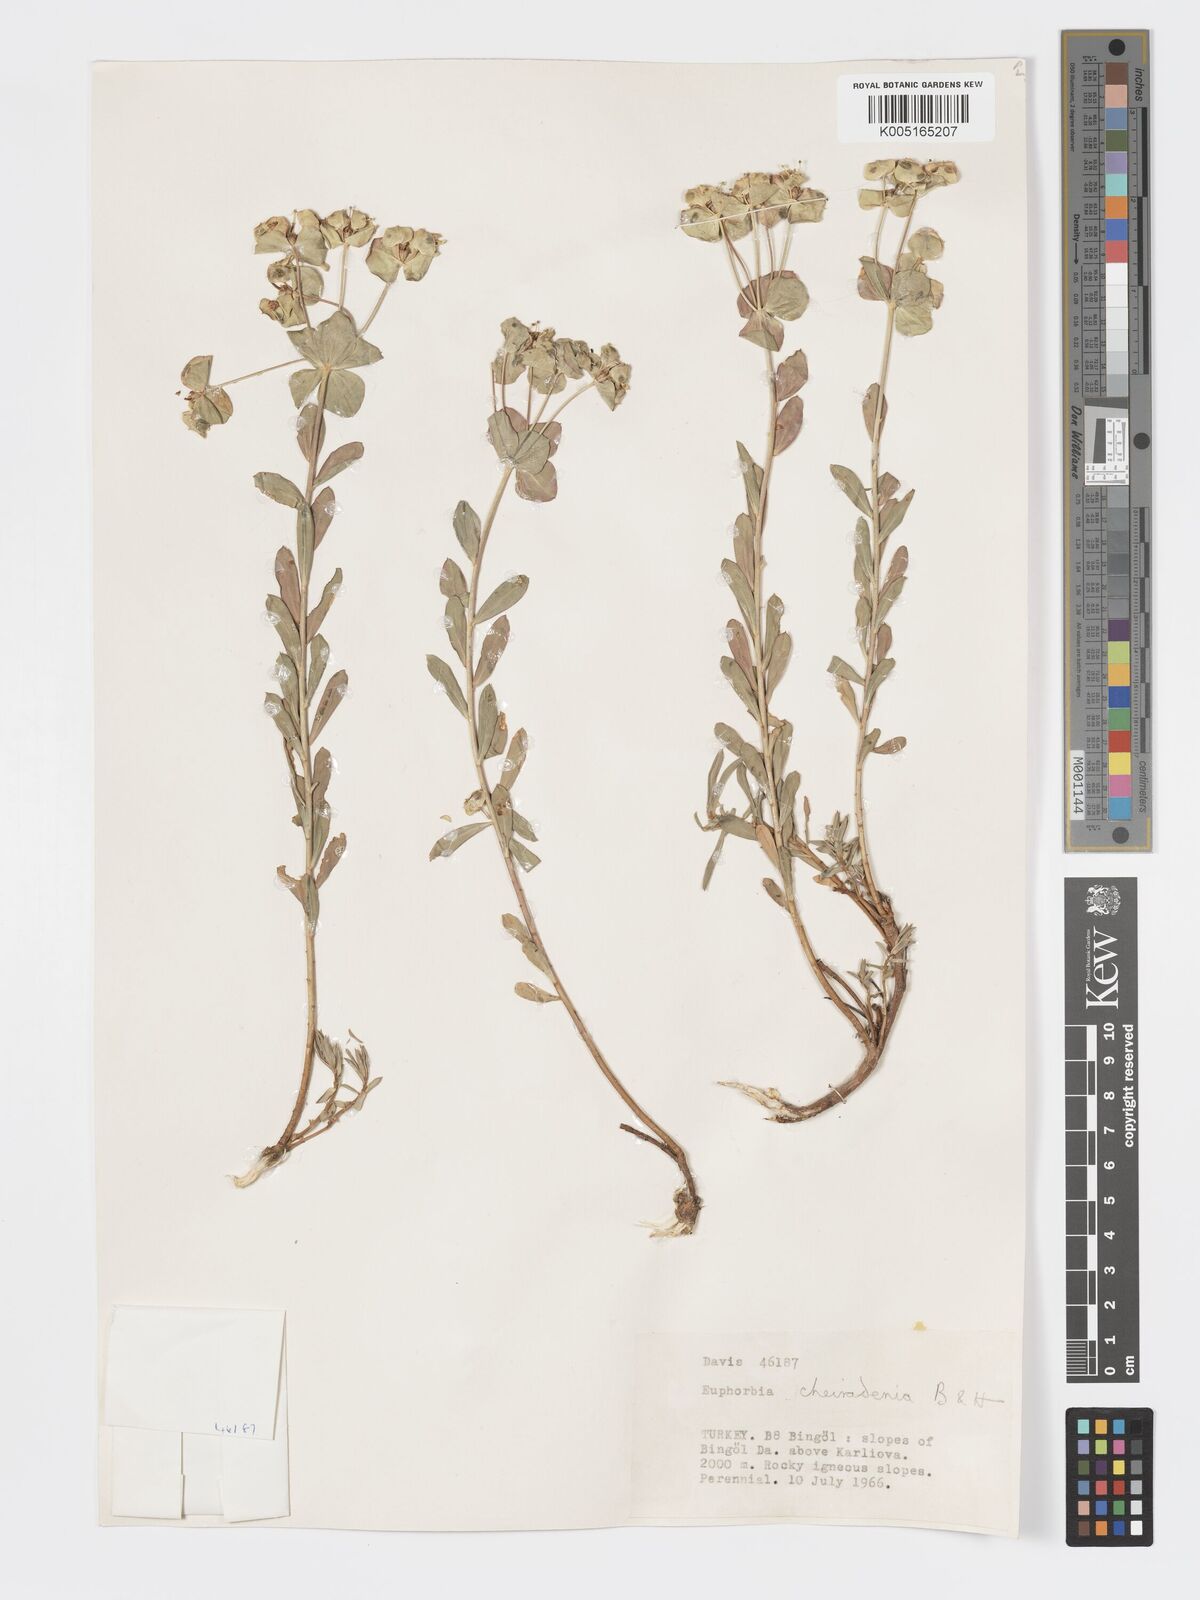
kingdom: Plantae
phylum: Tracheophyta
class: Magnoliopsida
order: Malpighiales
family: Euphorbiaceae
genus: Euphorbia
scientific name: Euphorbia cheiradenia
